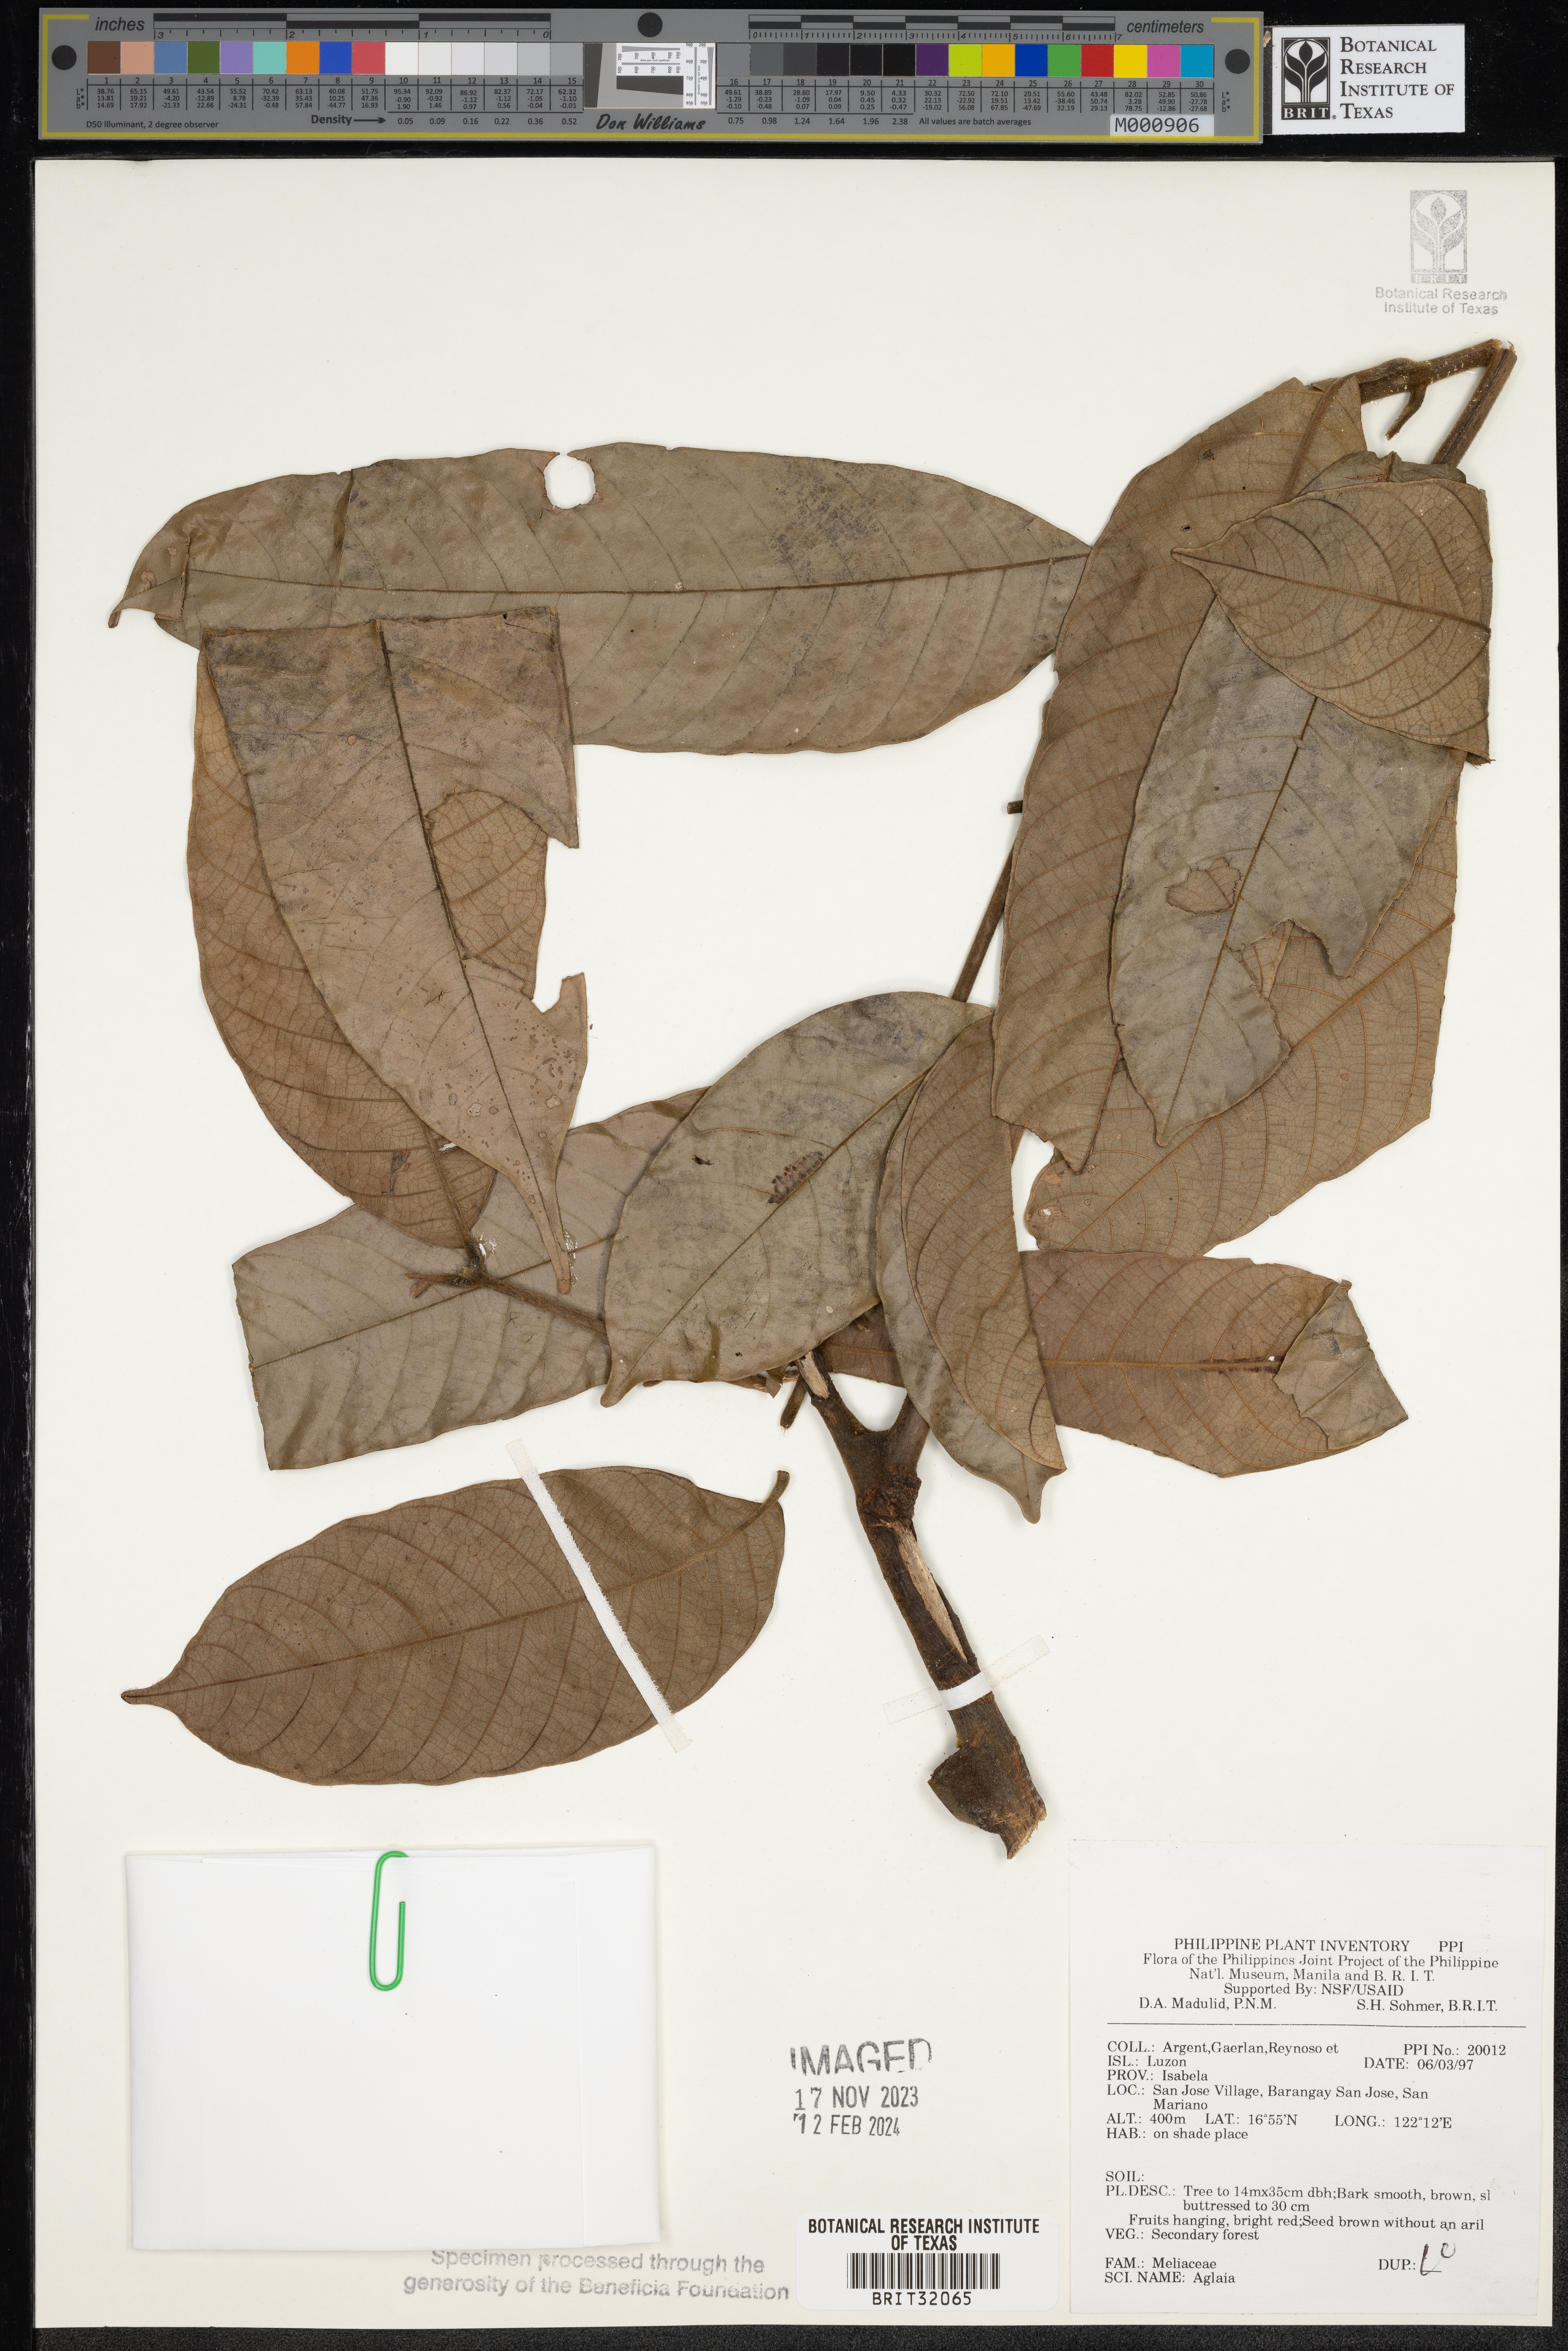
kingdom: Plantae
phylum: Tracheophyta
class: Magnoliopsida
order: Sapindales
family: Meliaceae
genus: Aglaia
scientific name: Aglaia
